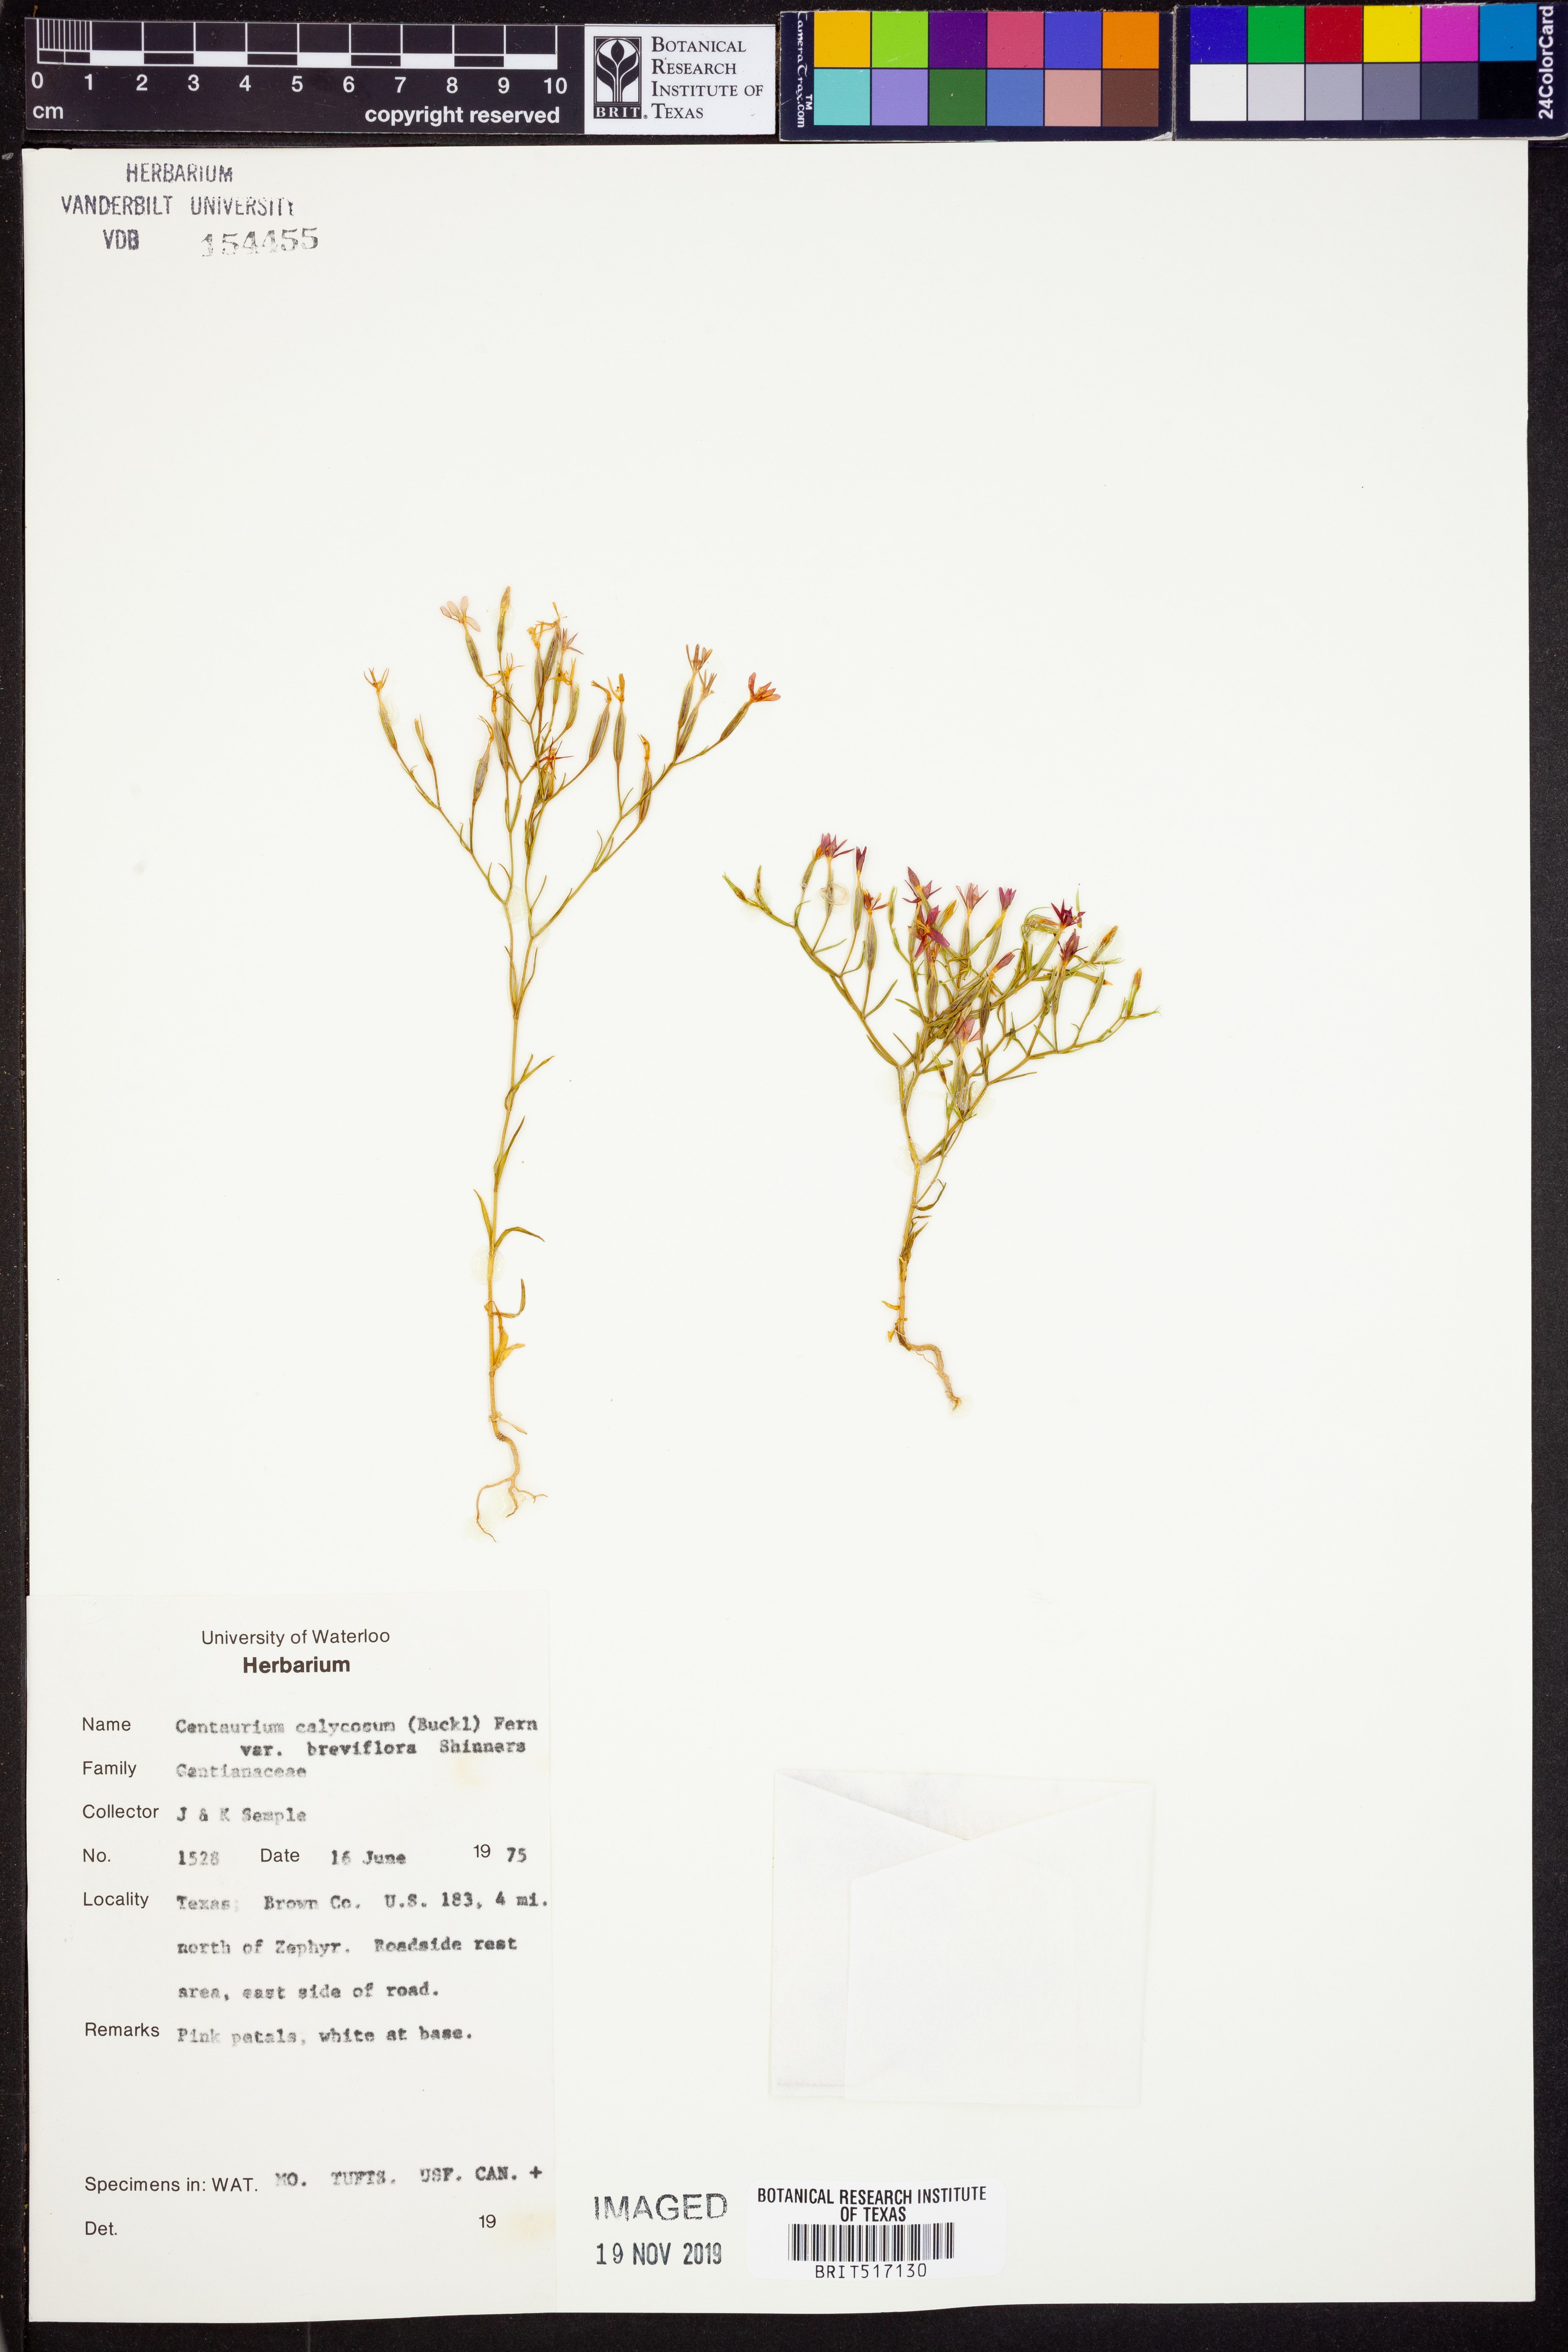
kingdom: Plantae
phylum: Tracheophyta
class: Magnoliopsida
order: Gentianales
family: Gentianaceae
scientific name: Gentianaceae
